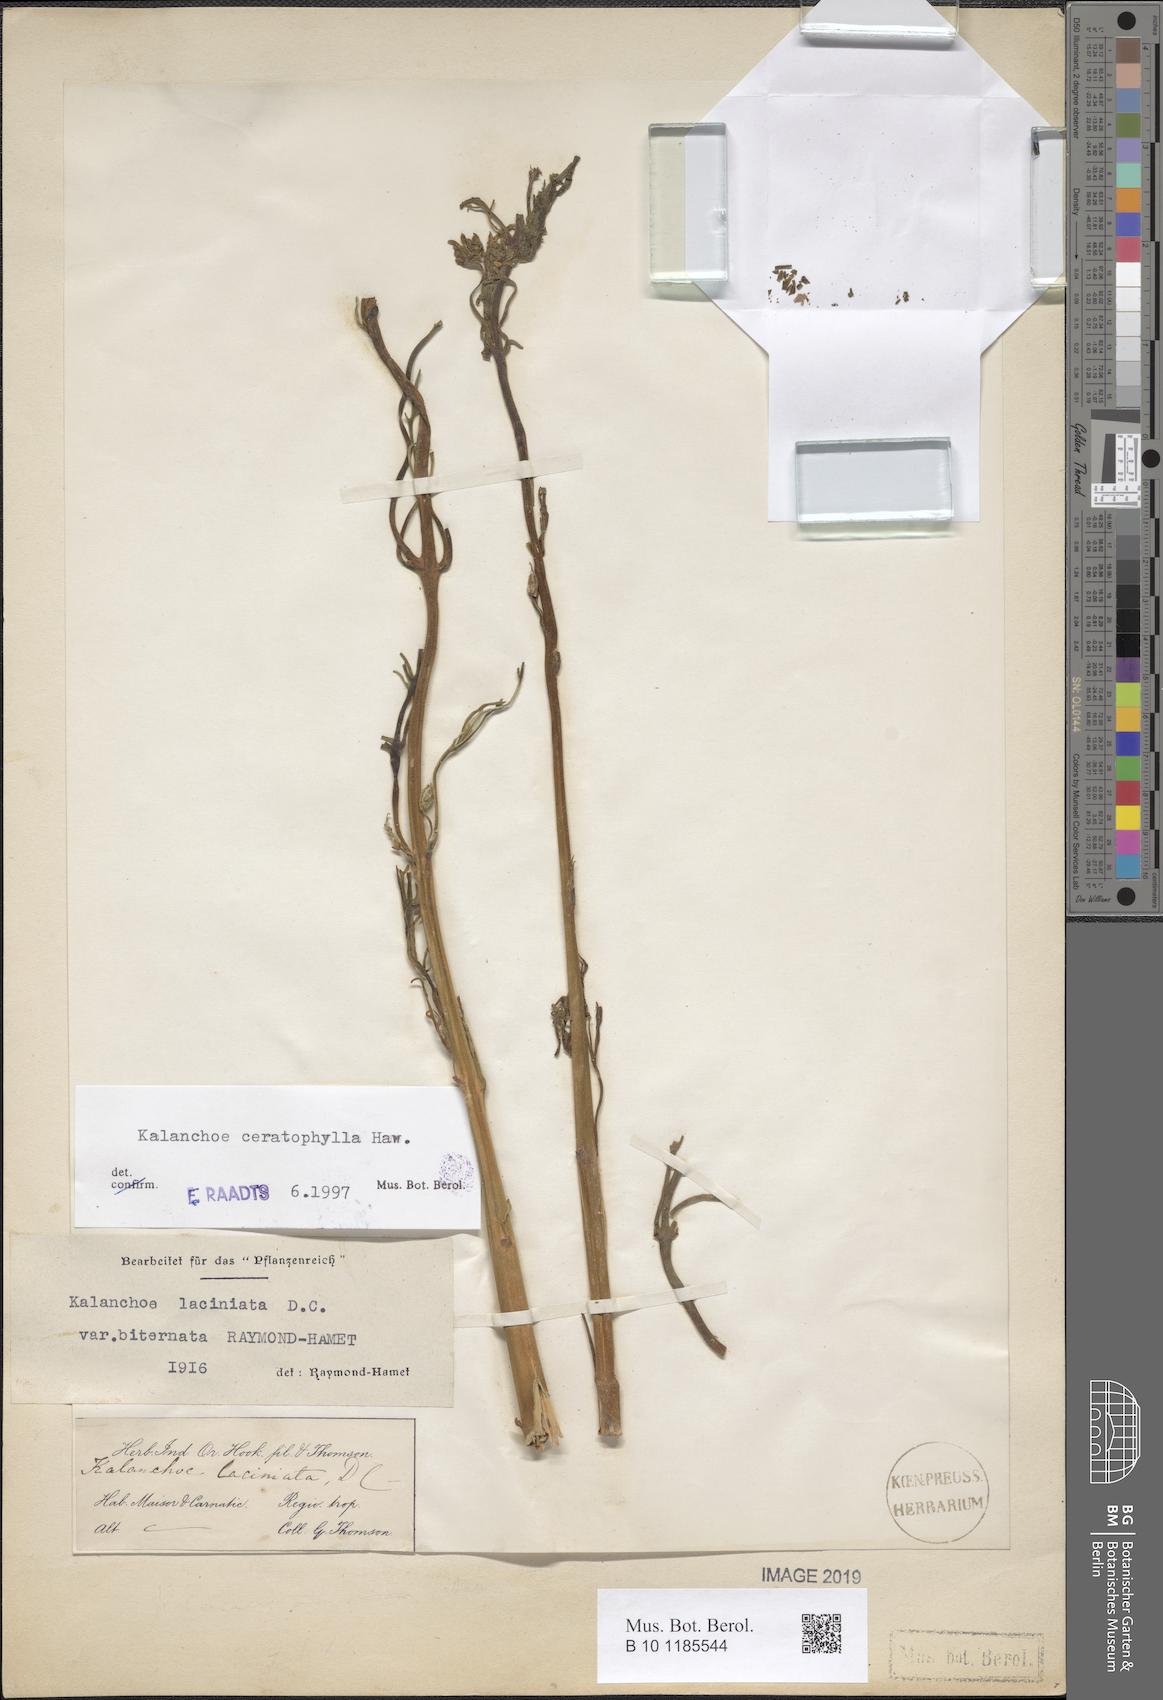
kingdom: Plantae
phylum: Tracheophyta
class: Magnoliopsida
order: Saxifragales
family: Crassulaceae
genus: Kalanchoe
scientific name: Kalanchoe ceratophylla
